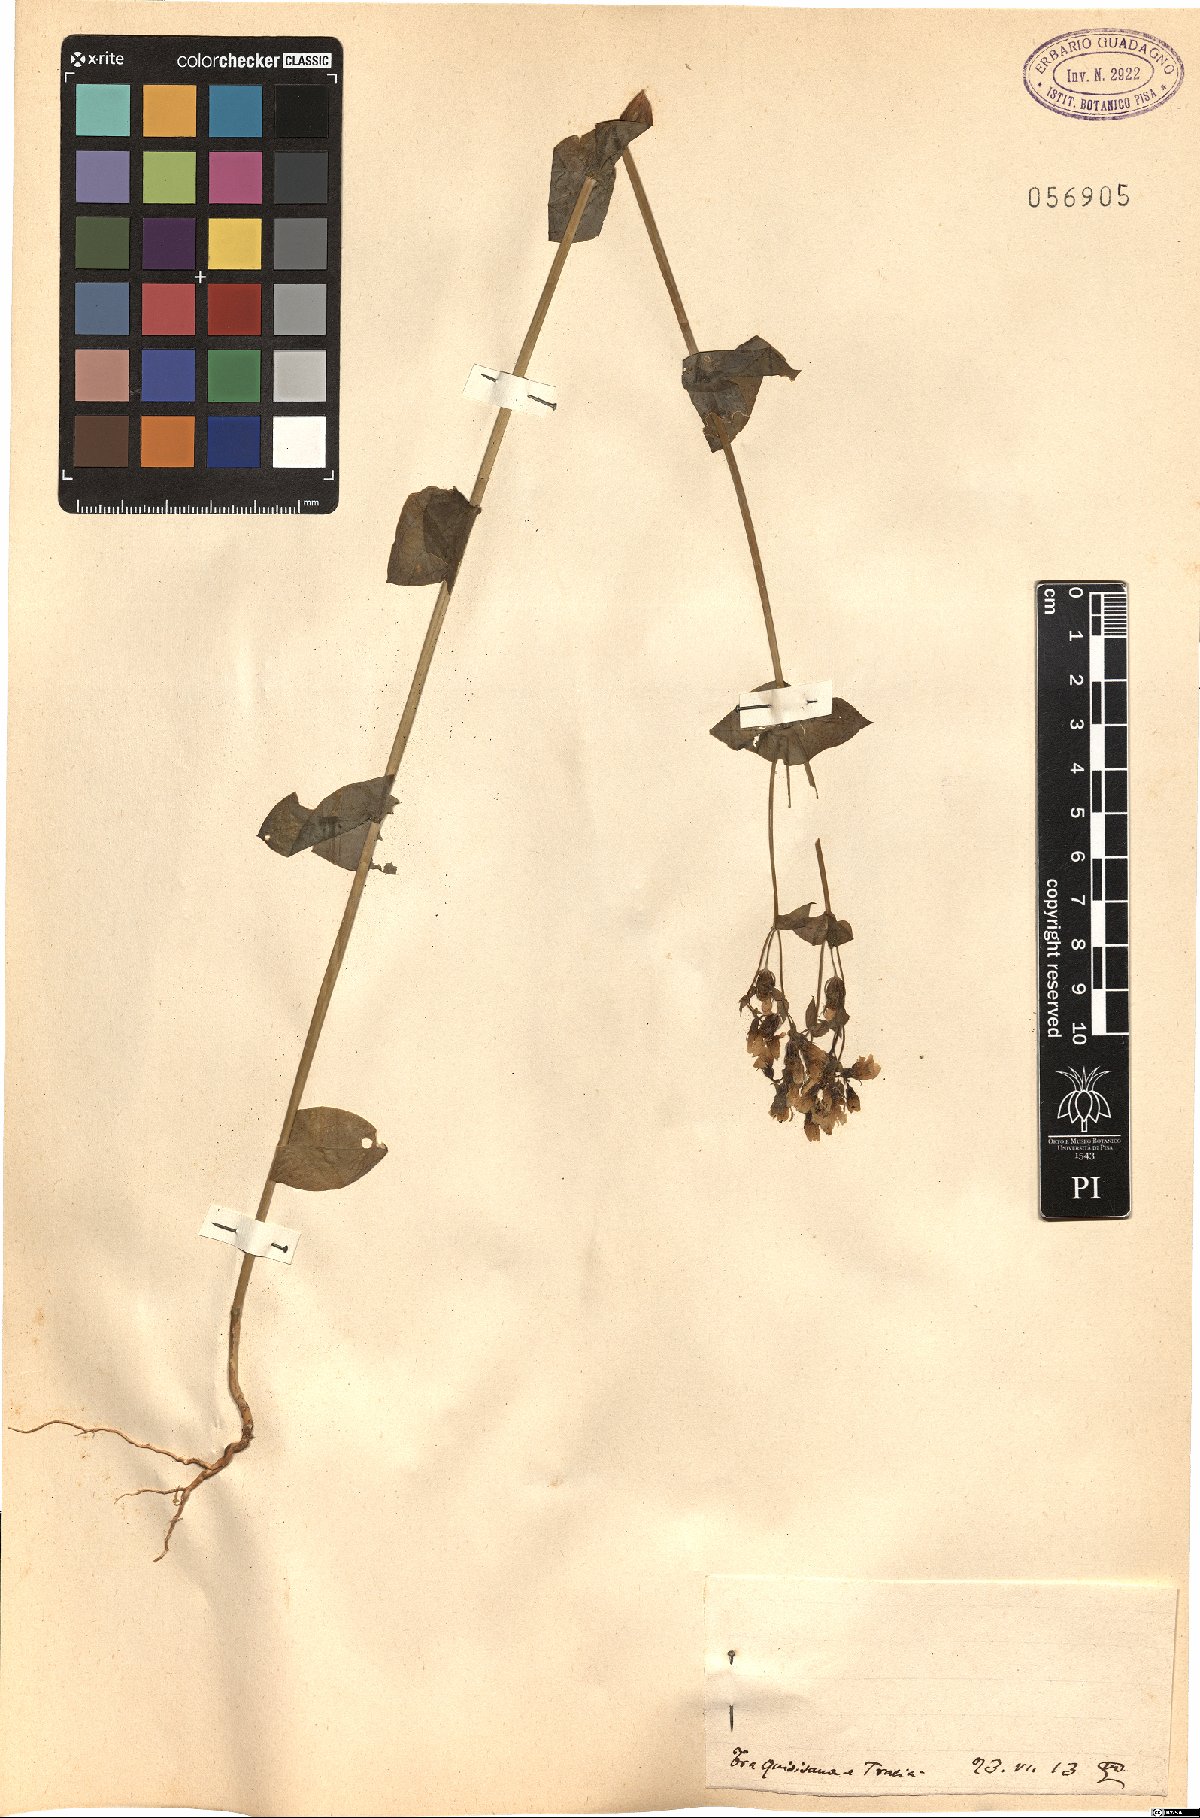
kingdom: Plantae
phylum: Tracheophyta
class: Magnoliopsida
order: Gentianales
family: Gentianaceae
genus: Blackstonia
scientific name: Blackstonia
